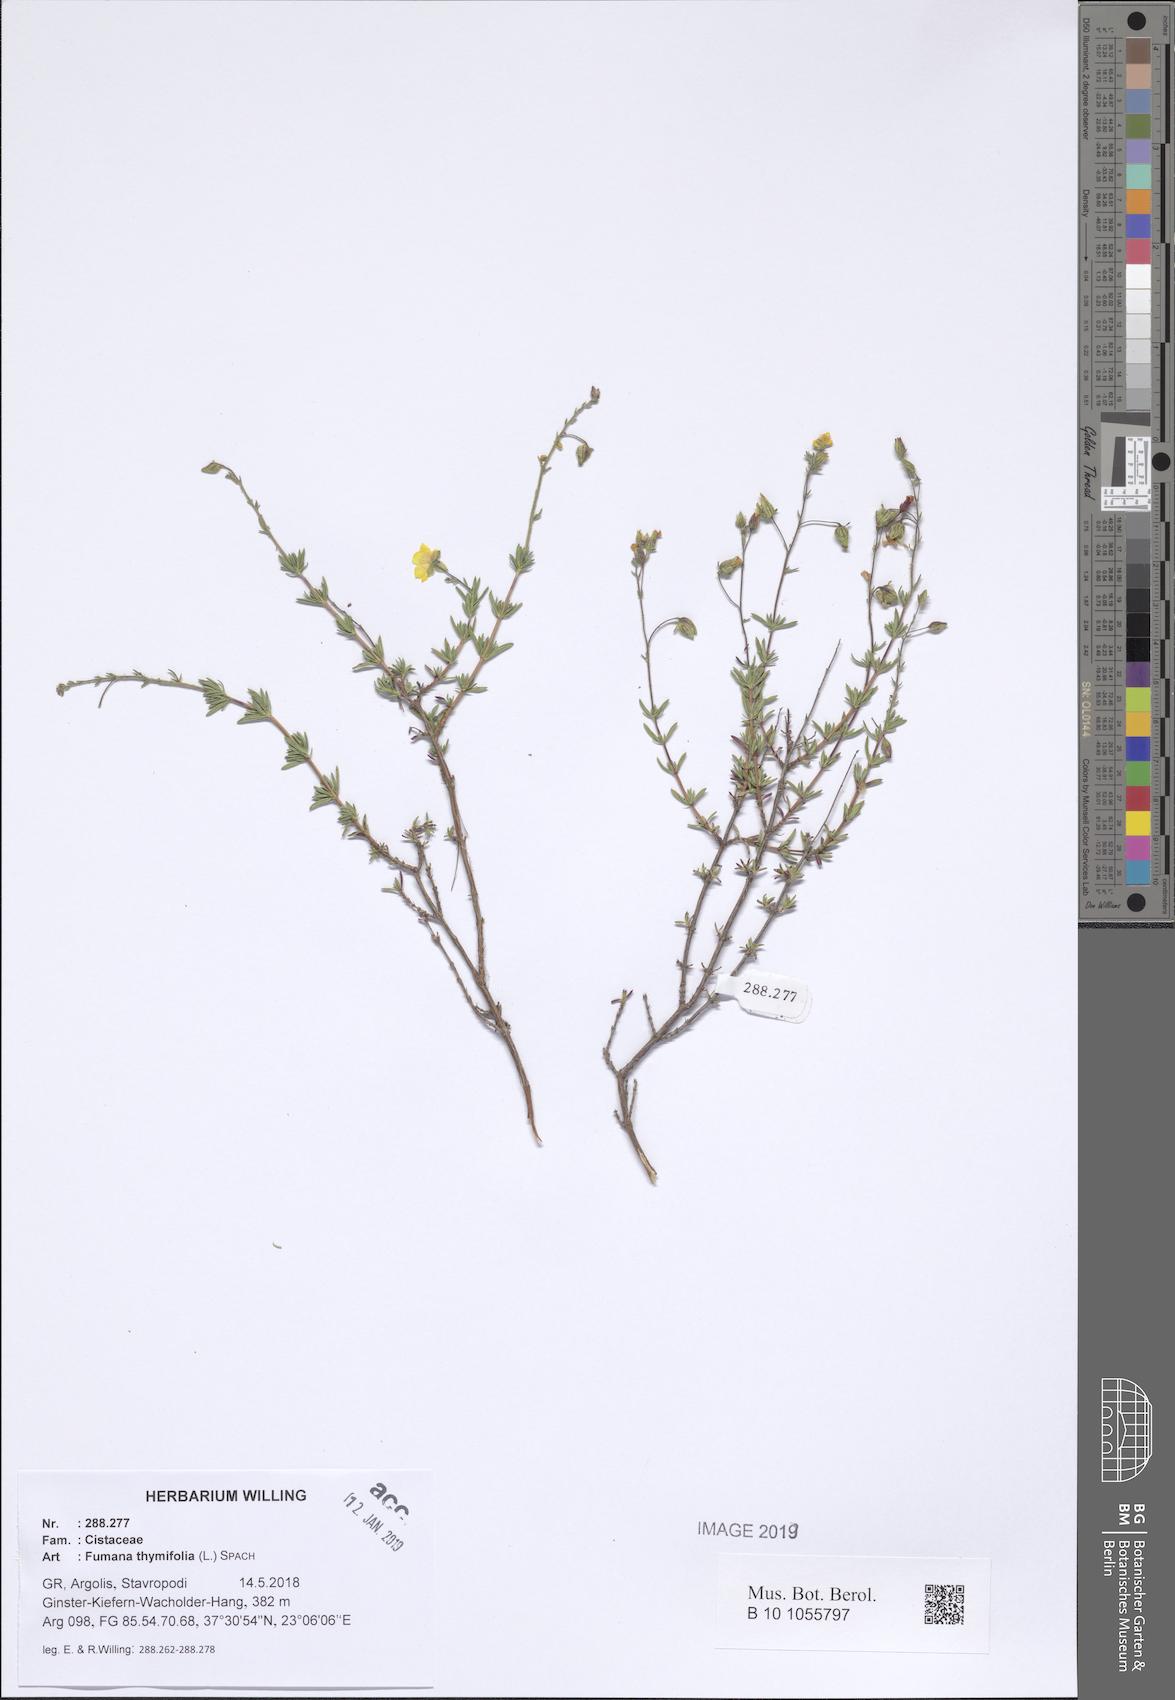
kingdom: Plantae
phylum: Tracheophyta
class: Magnoliopsida
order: Malvales
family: Cistaceae
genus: Fumana
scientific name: Fumana thymifolia
